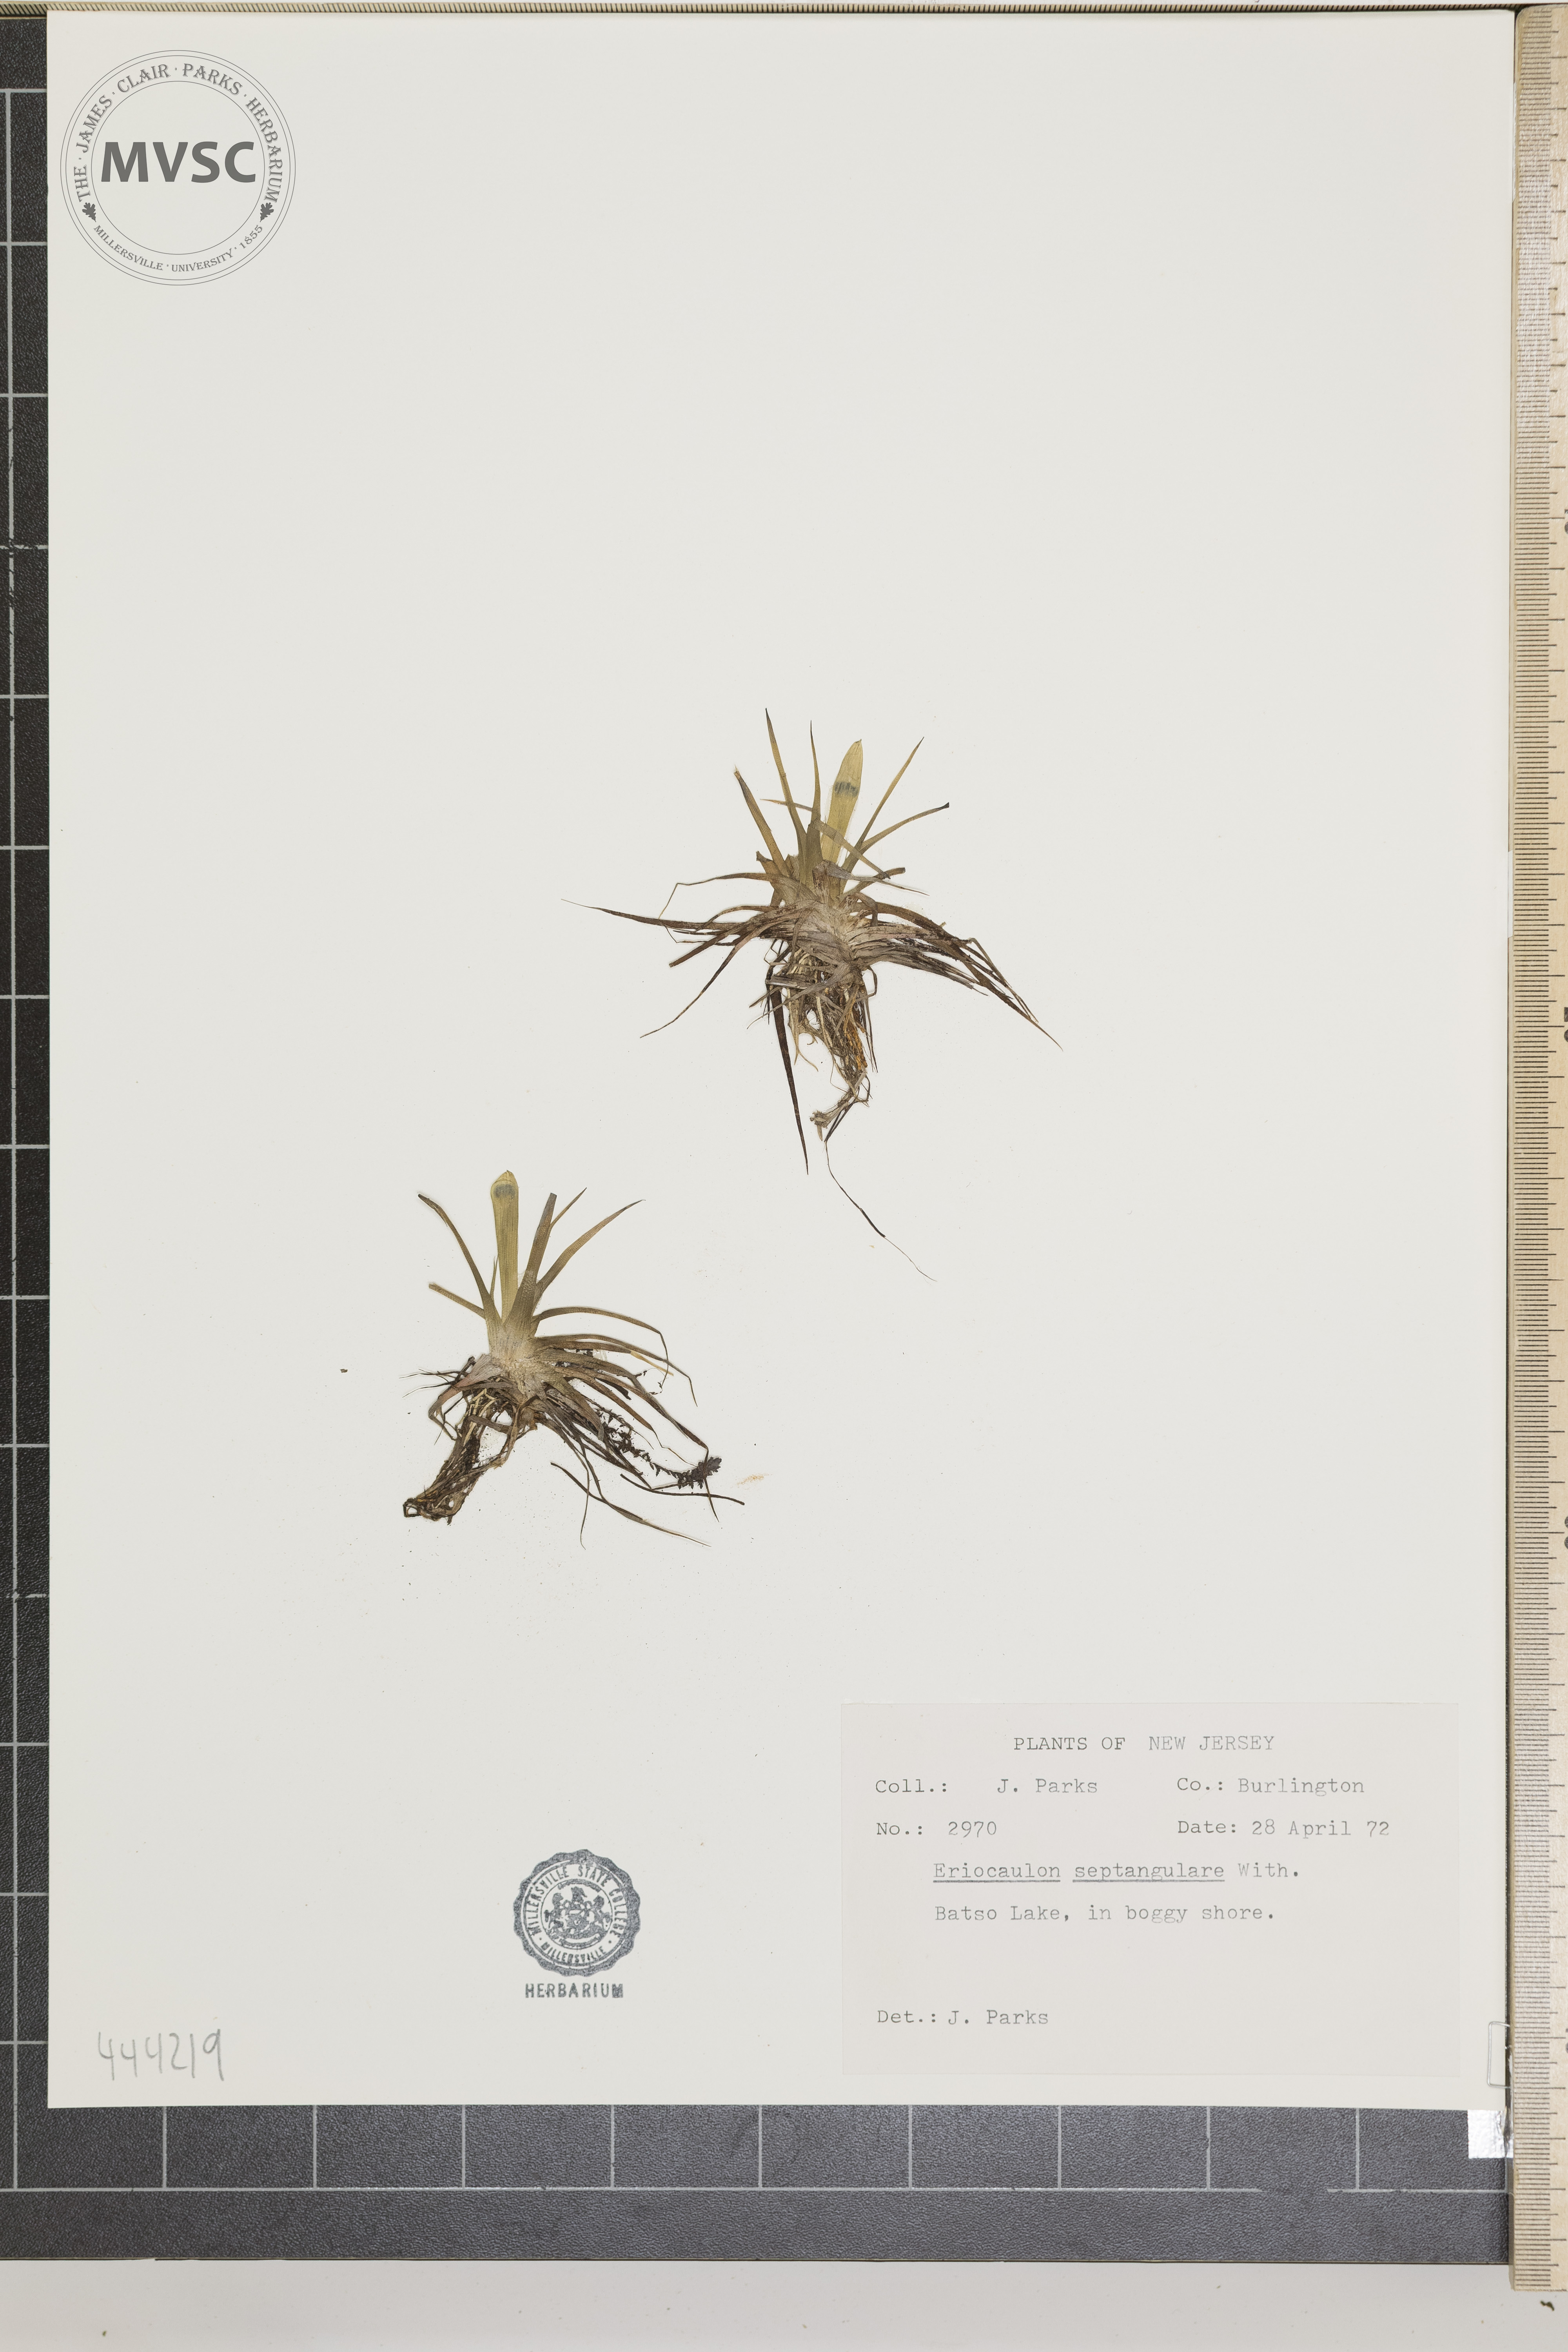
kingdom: Plantae
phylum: Tracheophyta
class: Liliopsida
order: Poales
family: Eriocaulaceae
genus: Eriocaulon
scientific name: Eriocaulon aquaticum
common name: Pipewort
